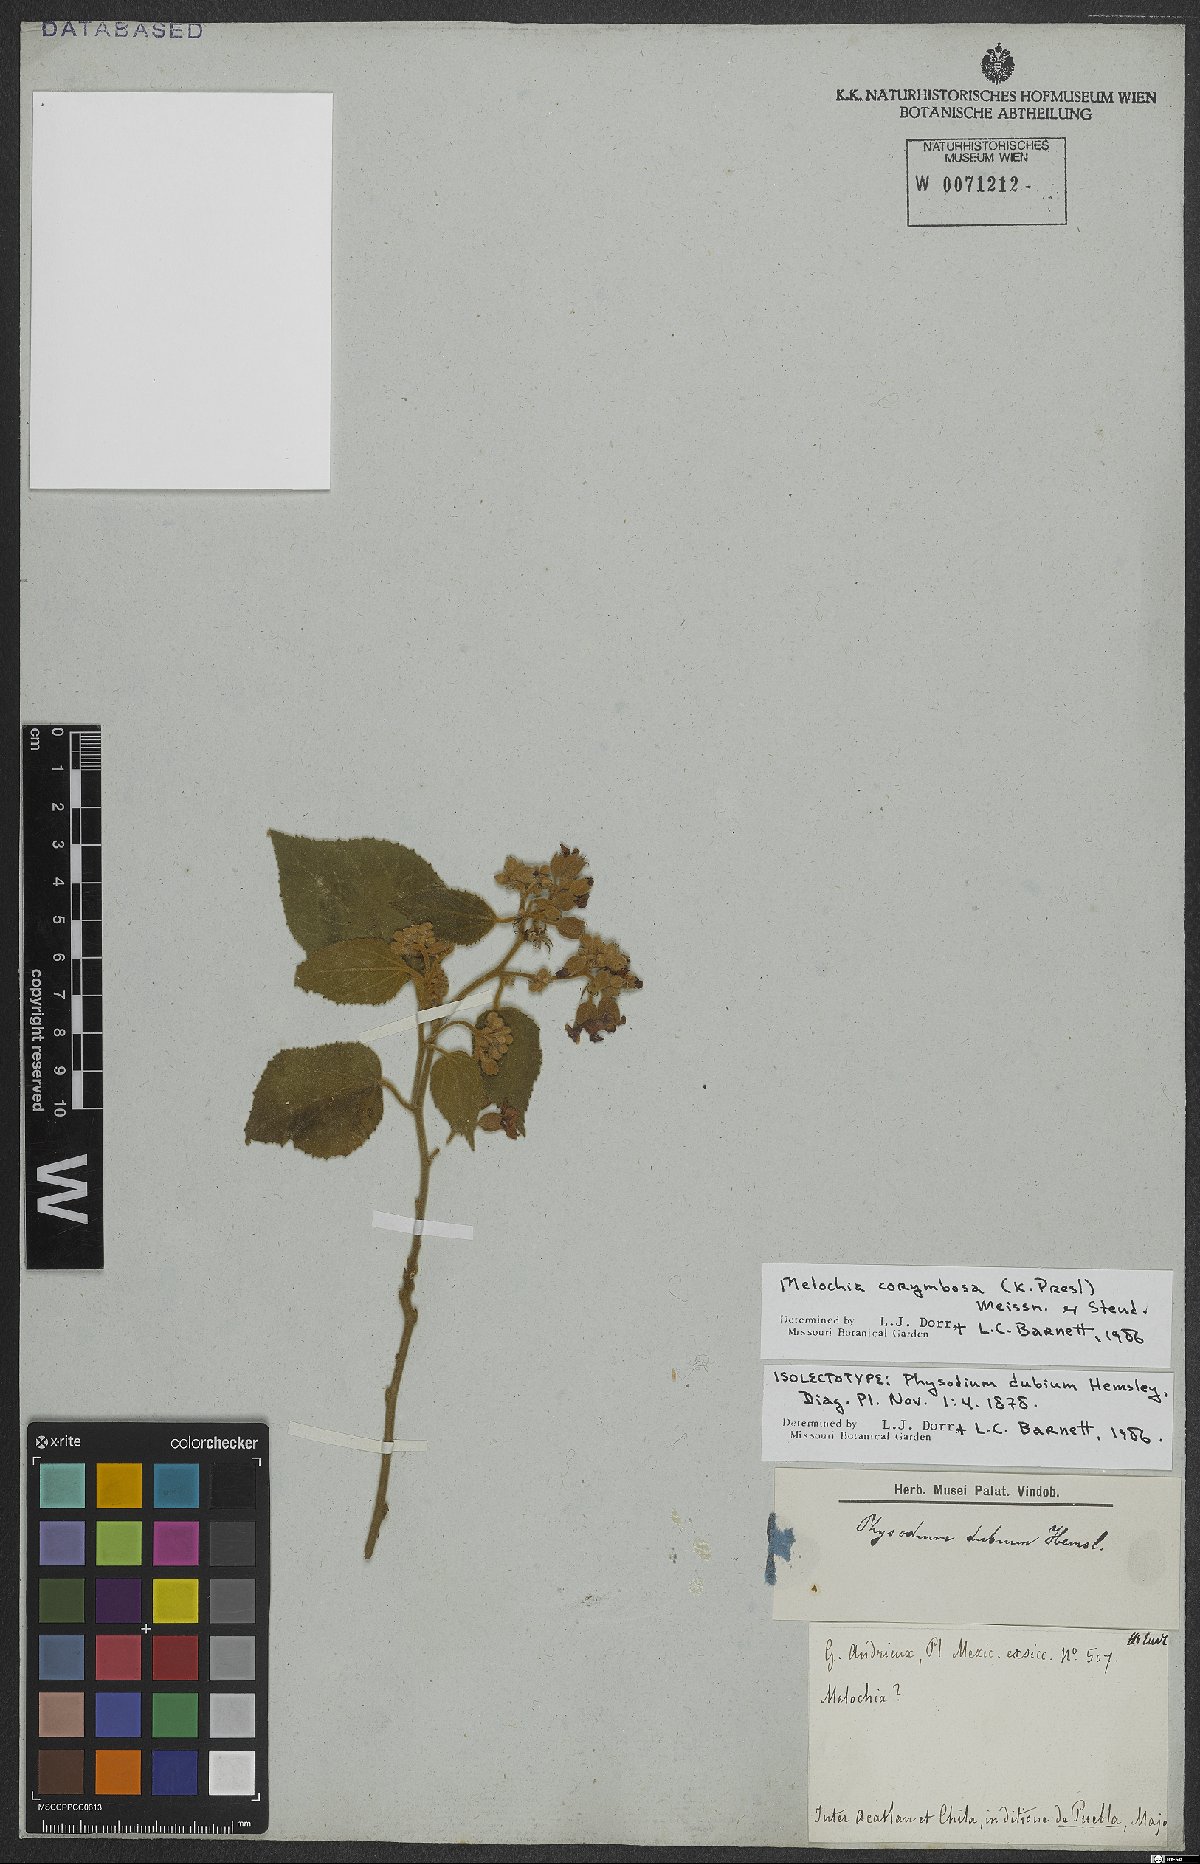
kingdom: Plantae
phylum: Tracheophyta
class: Magnoliopsida
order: Malvales
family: Malvaceae
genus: Physodium
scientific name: Physodium corymbosum
